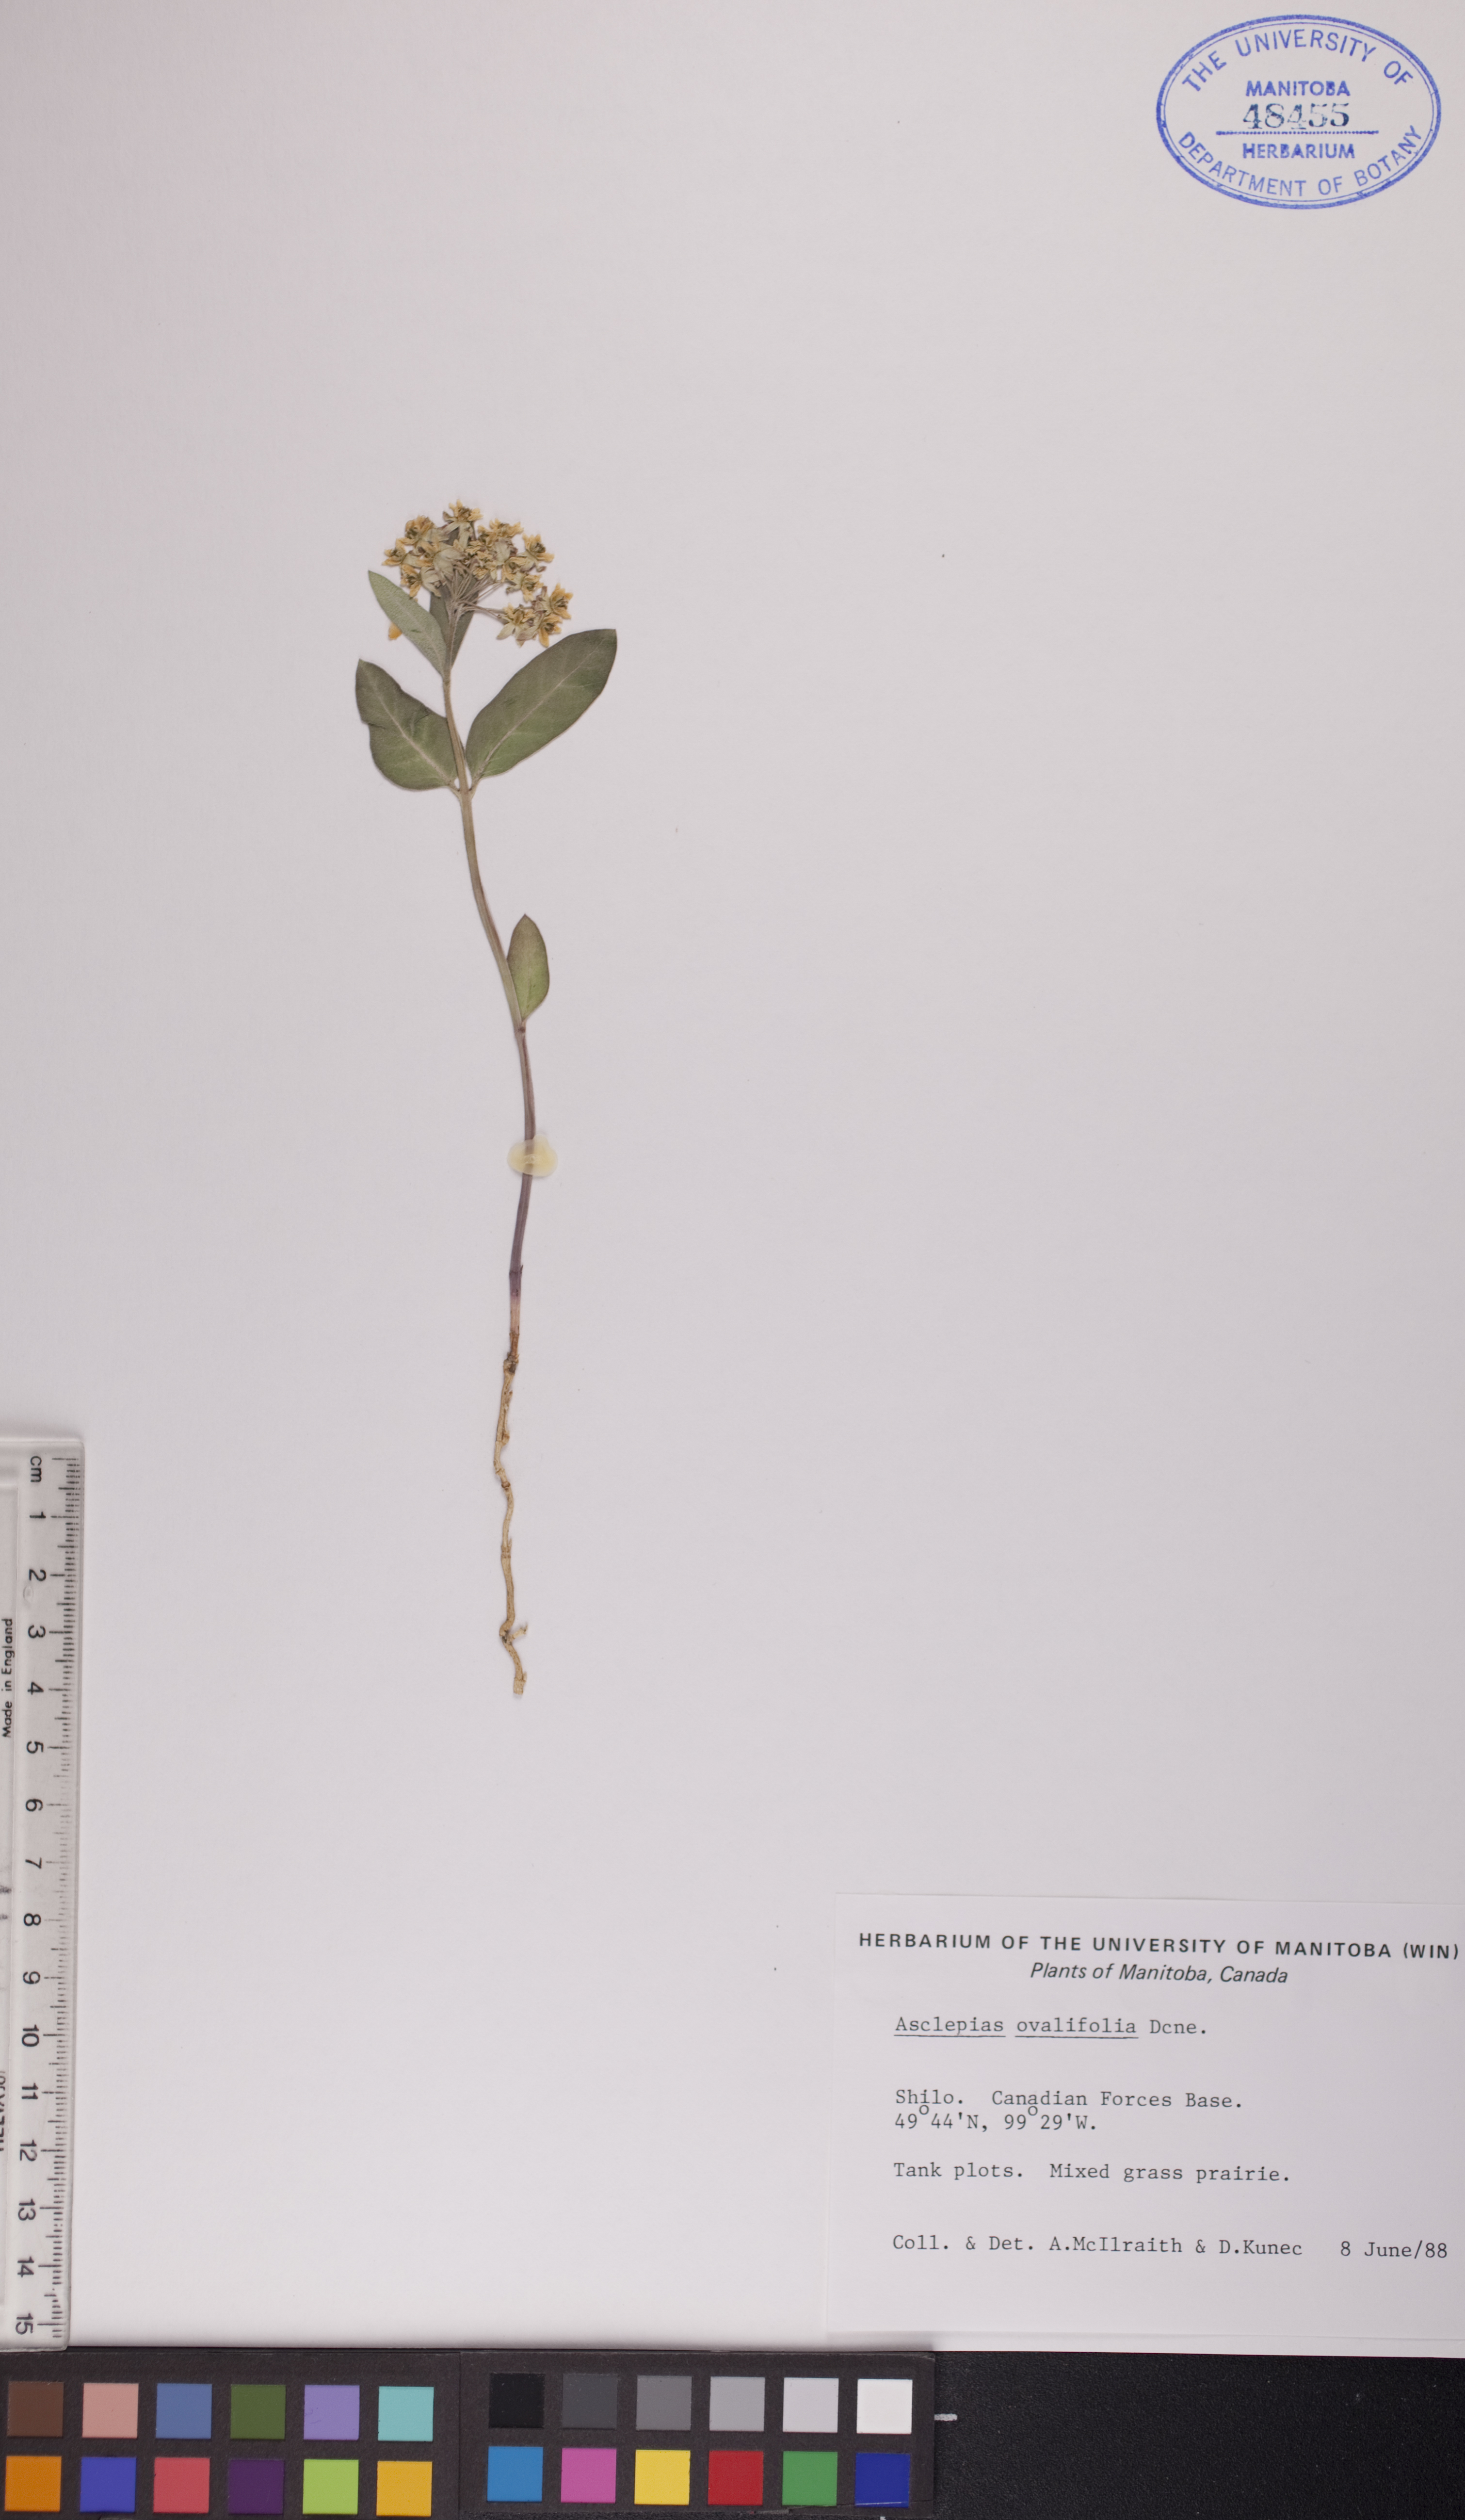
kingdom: Plantae
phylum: Tracheophyta
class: Magnoliopsida
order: Gentianales
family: Apocynaceae
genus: Asclepias
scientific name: Asclepias ovalifolia
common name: Dwarf milkweed
